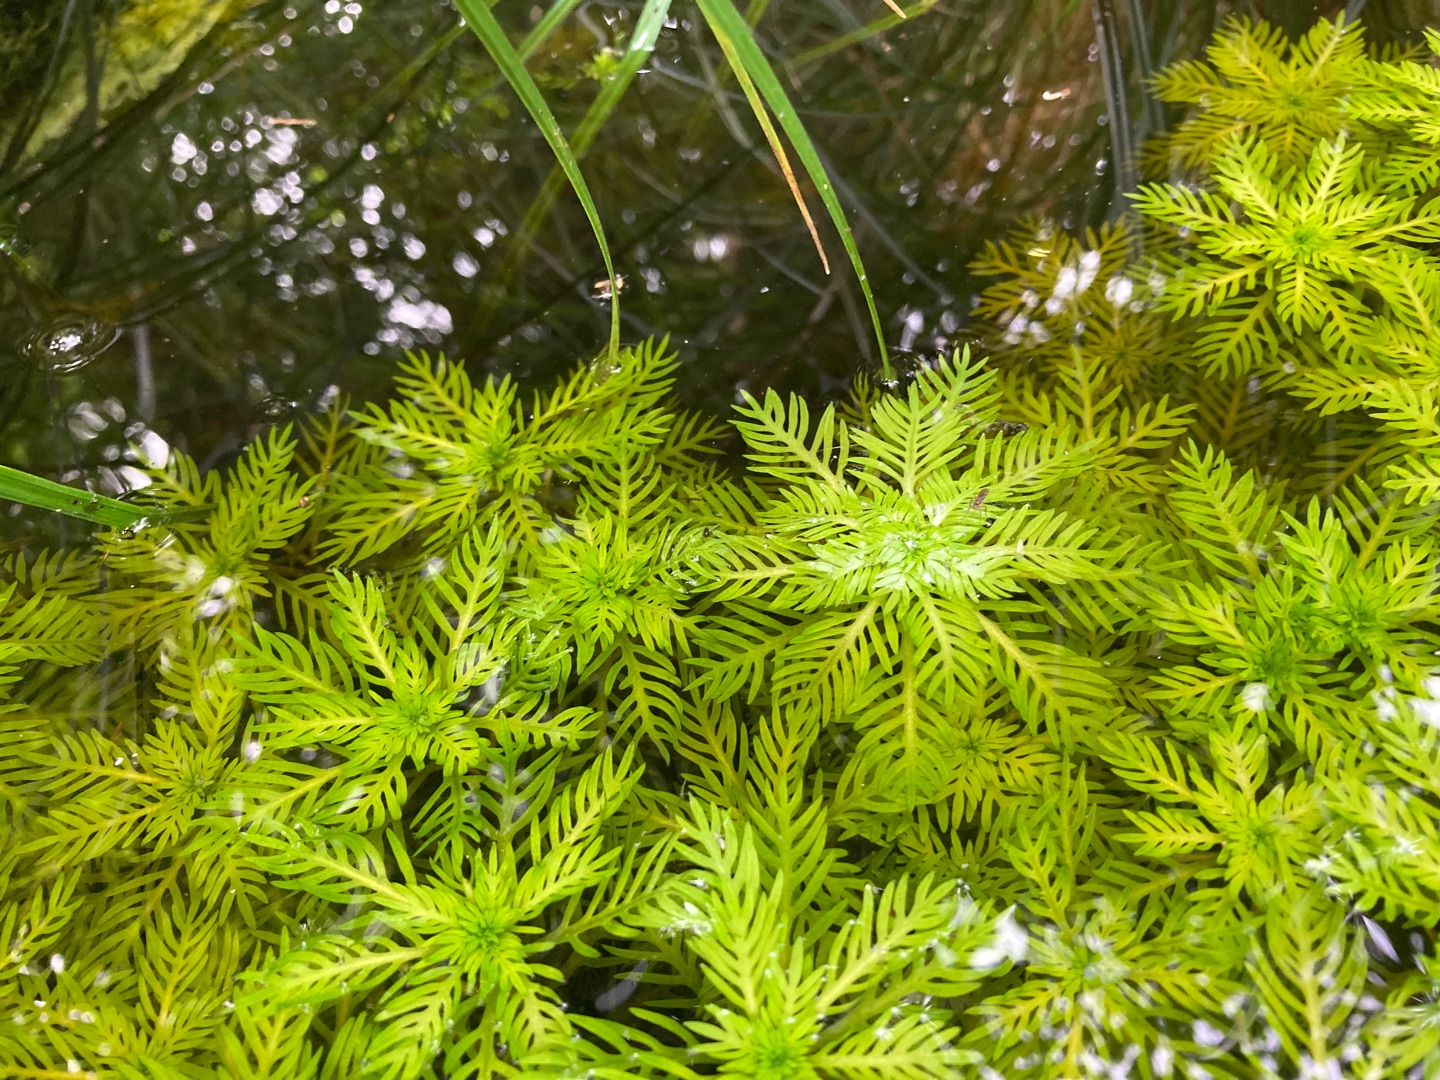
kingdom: Plantae
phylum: Tracheophyta
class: Magnoliopsida
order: Ericales
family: Primulaceae
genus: Hottonia
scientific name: Hottonia palustris
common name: Vandrøllike
